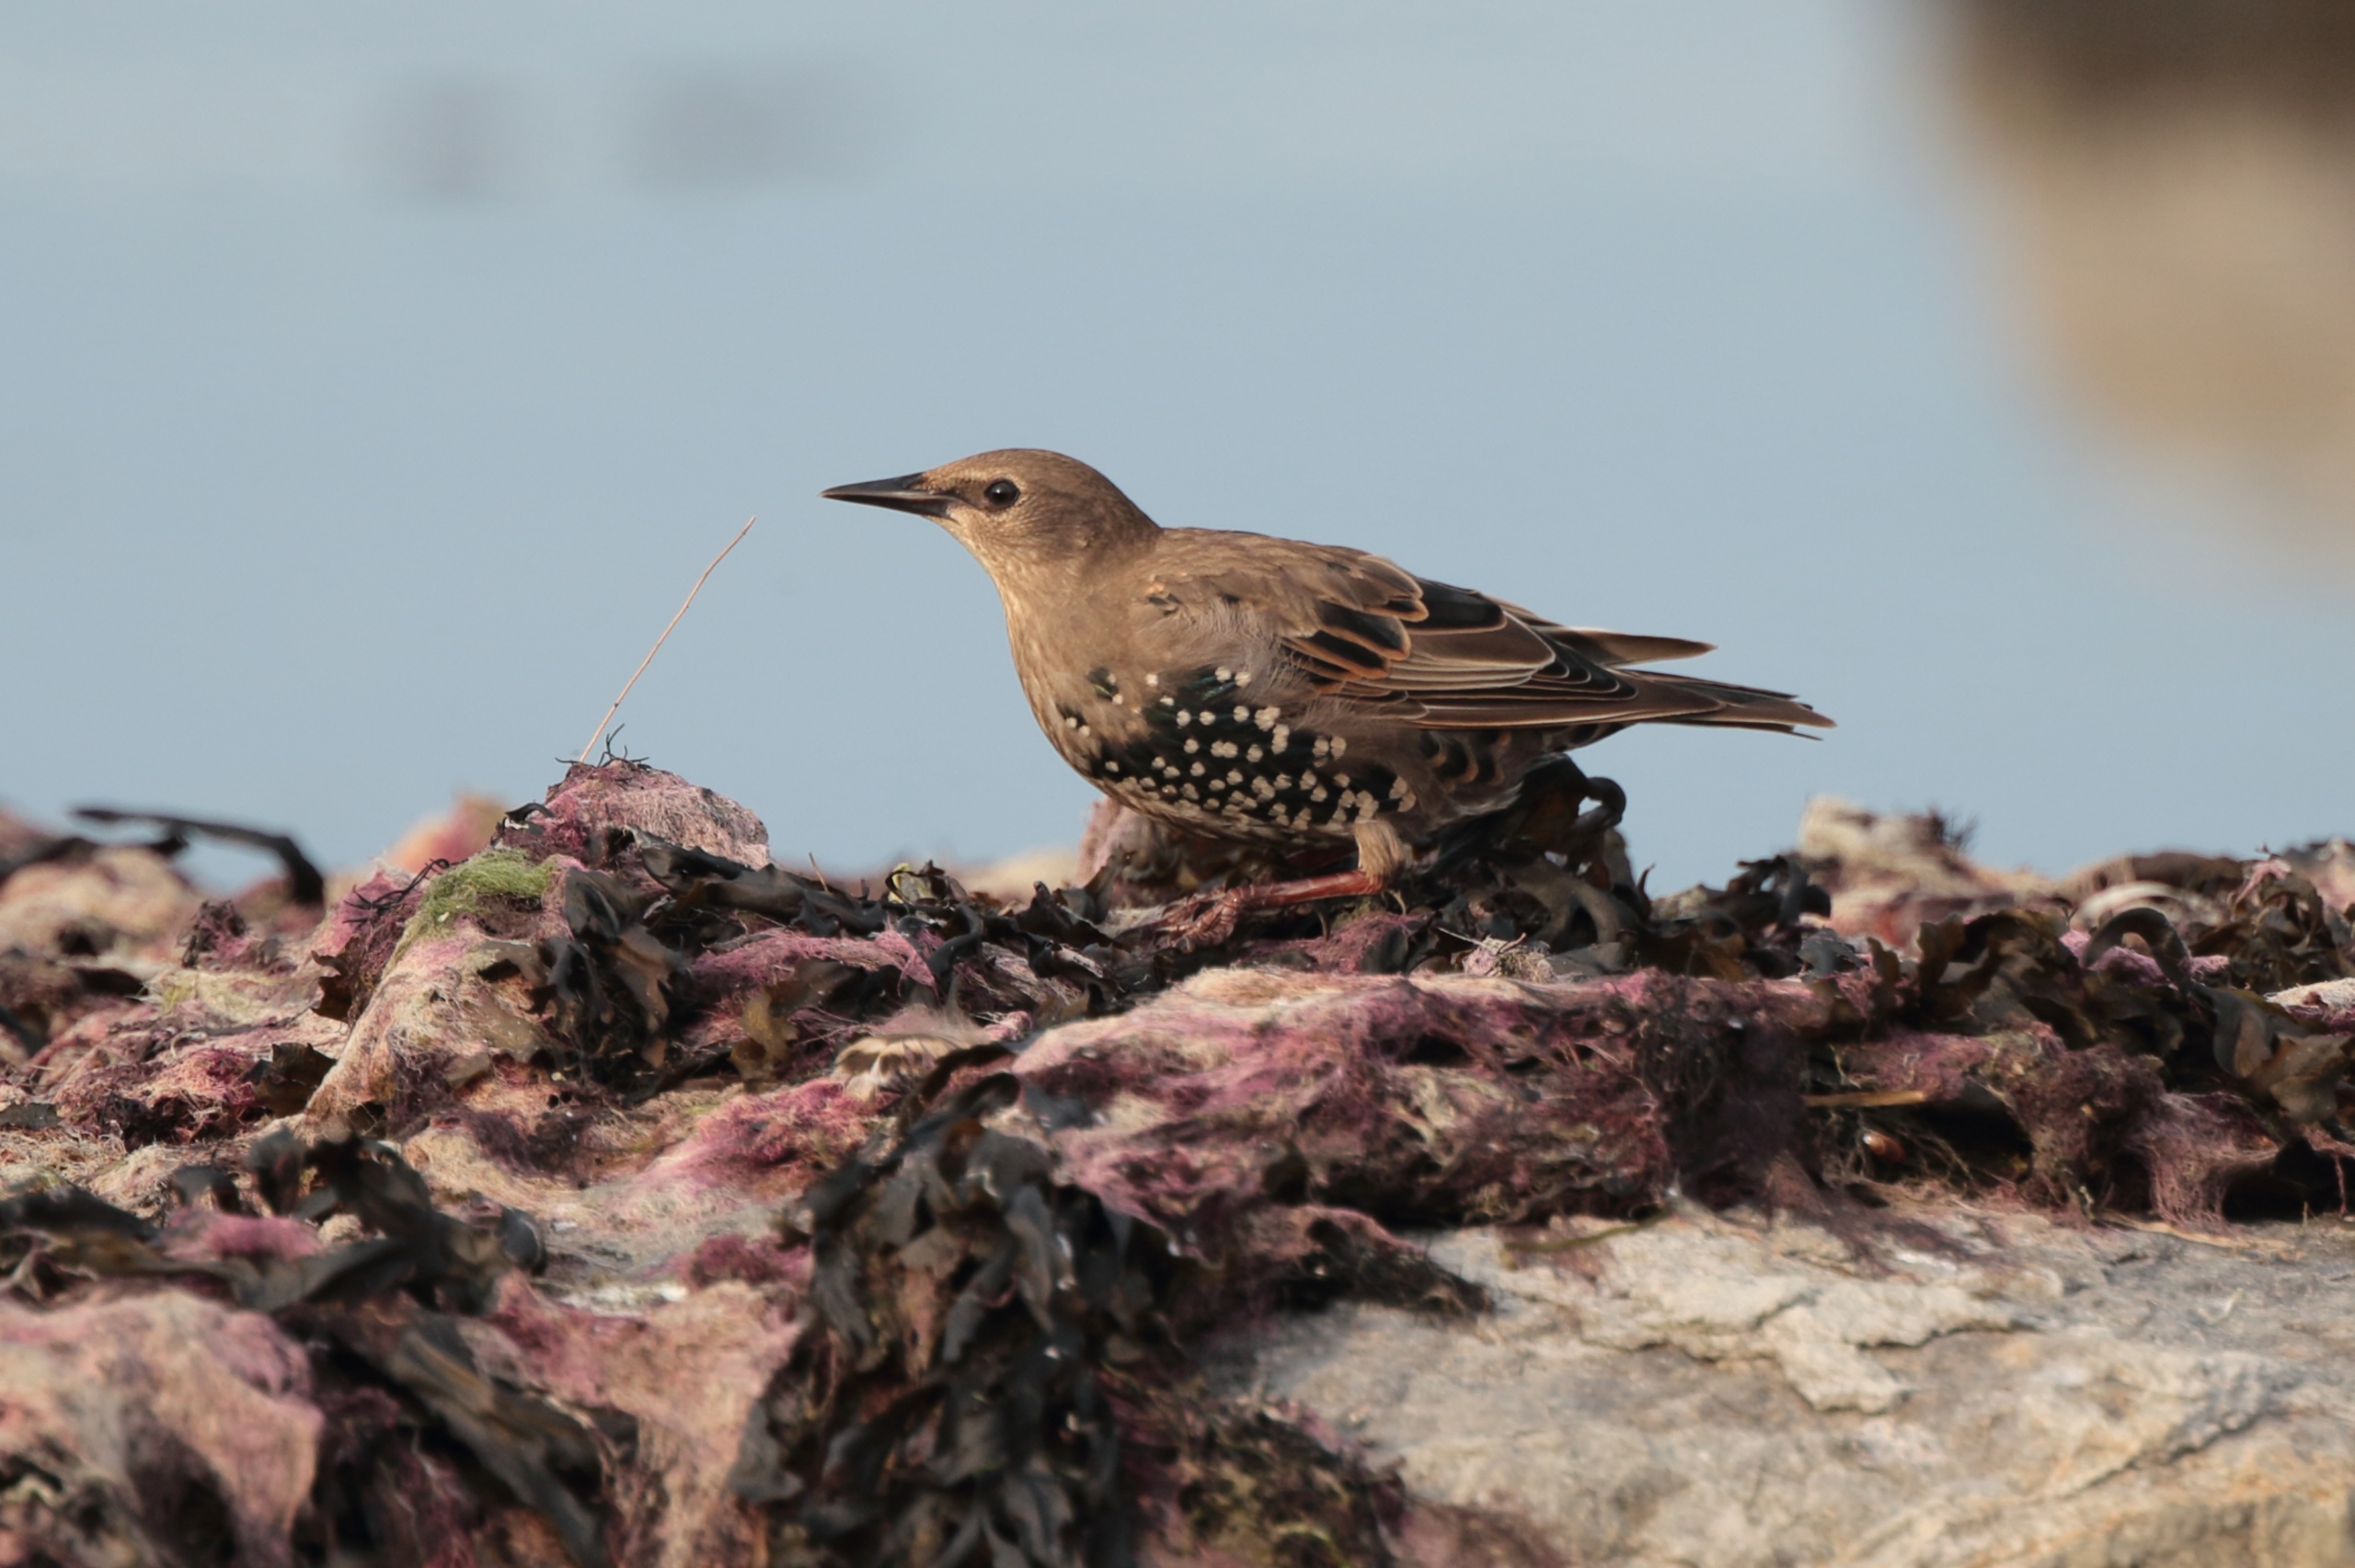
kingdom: Animalia
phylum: Chordata
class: Aves
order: Passeriformes
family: Sturnidae
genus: Sturnus
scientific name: Sturnus vulgaris
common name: Stær
